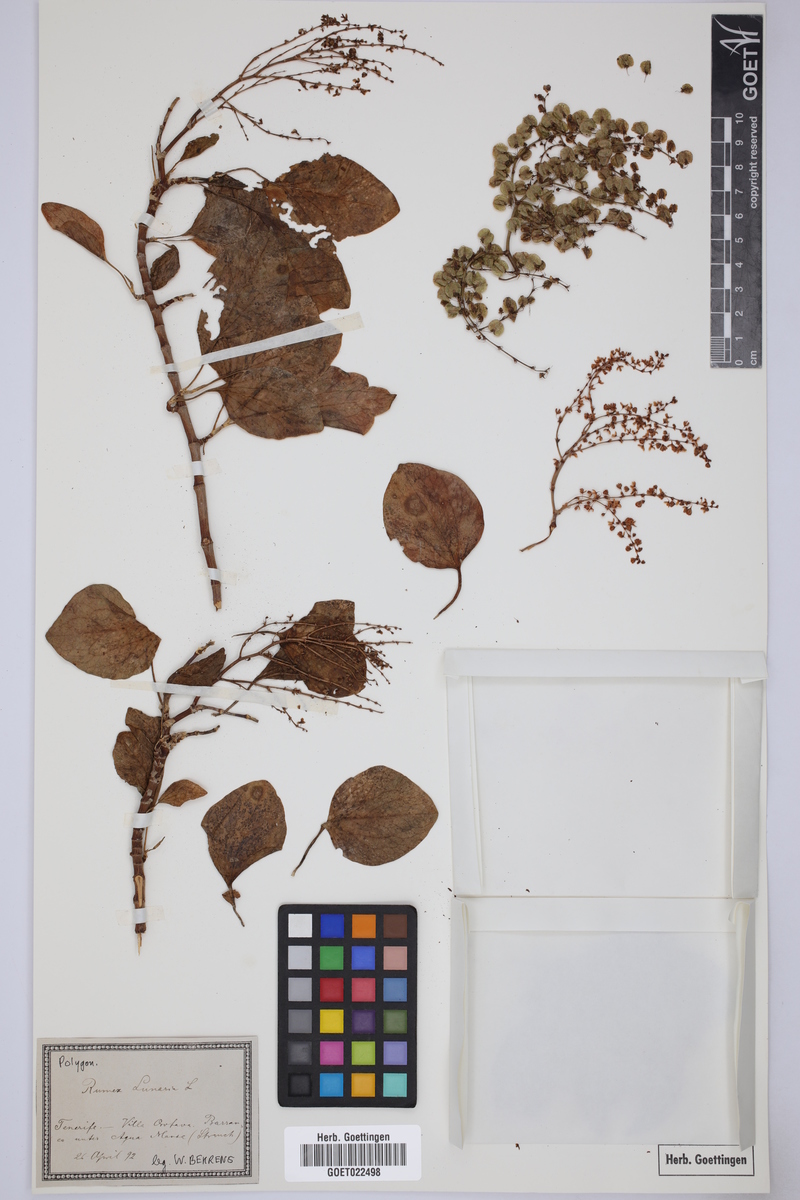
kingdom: Plantae
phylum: Tracheophyta
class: Magnoliopsida
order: Caryophyllales
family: Polygonaceae
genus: Rumex
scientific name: Rumex lunaria
